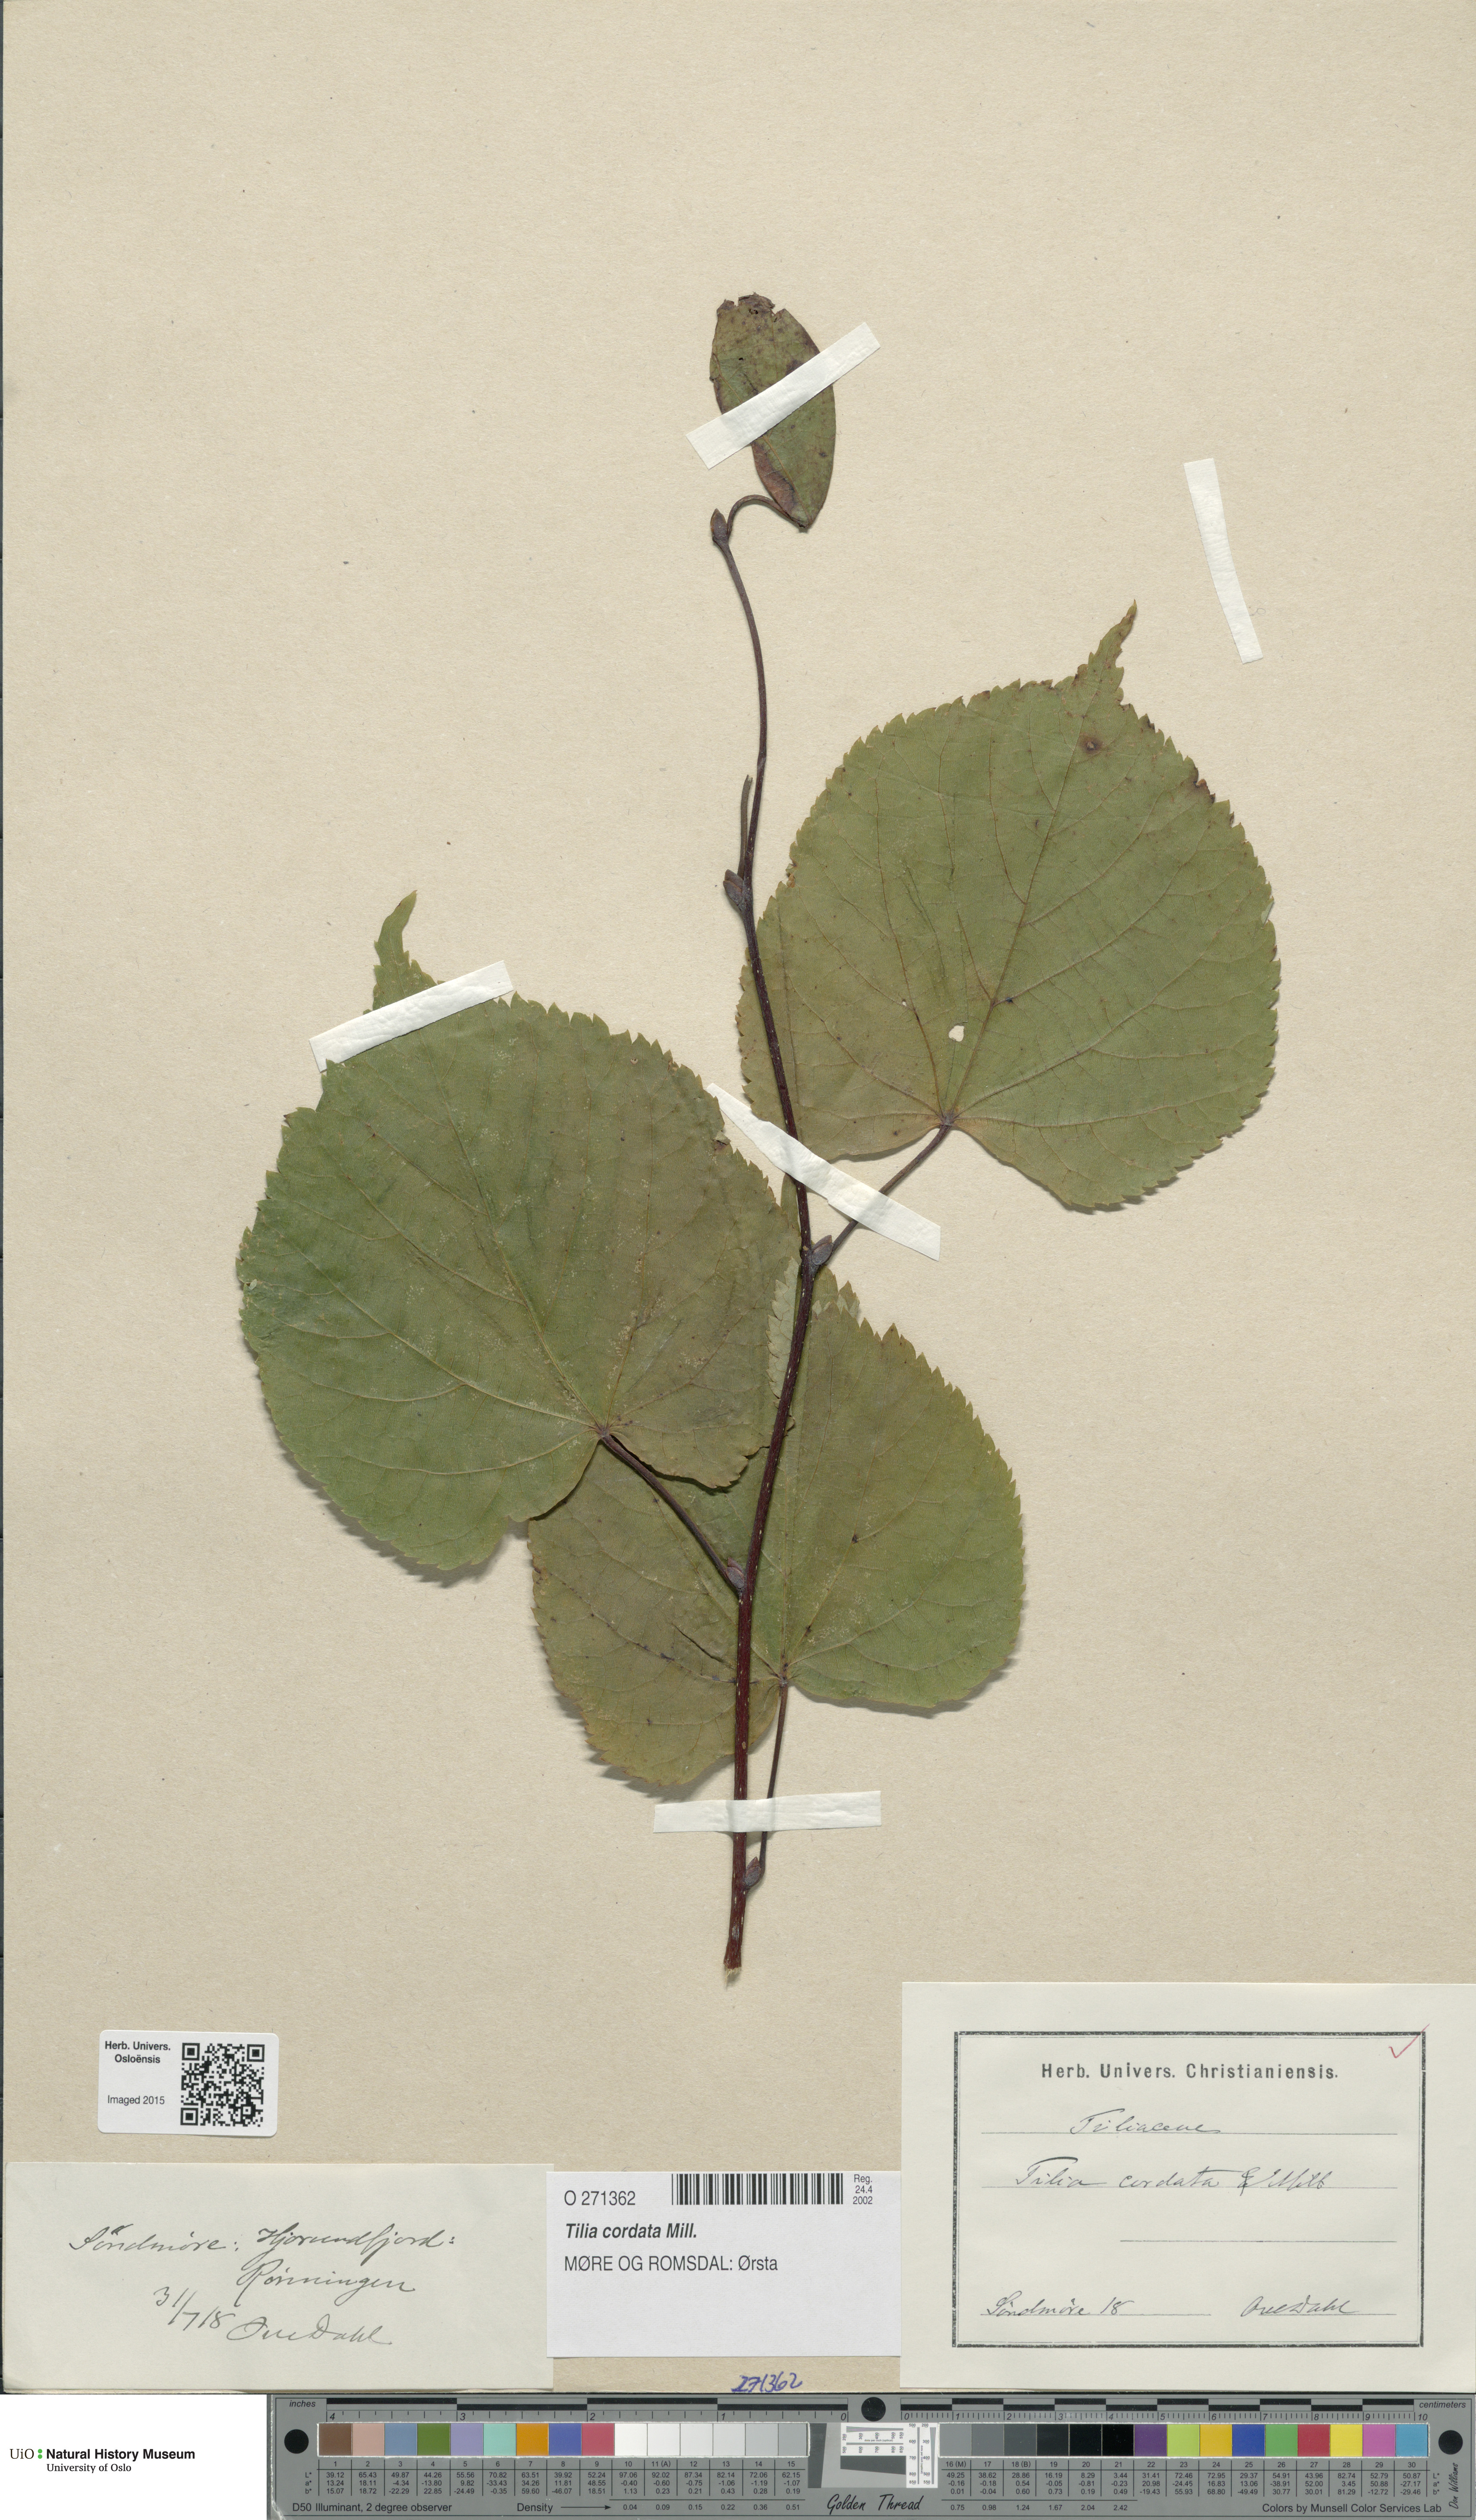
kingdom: Plantae
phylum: Tracheophyta
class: Magnoliopsida
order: Malvales
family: Malvaceae
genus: Tilia
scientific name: Tilia cordata
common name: Small-leaved lime
